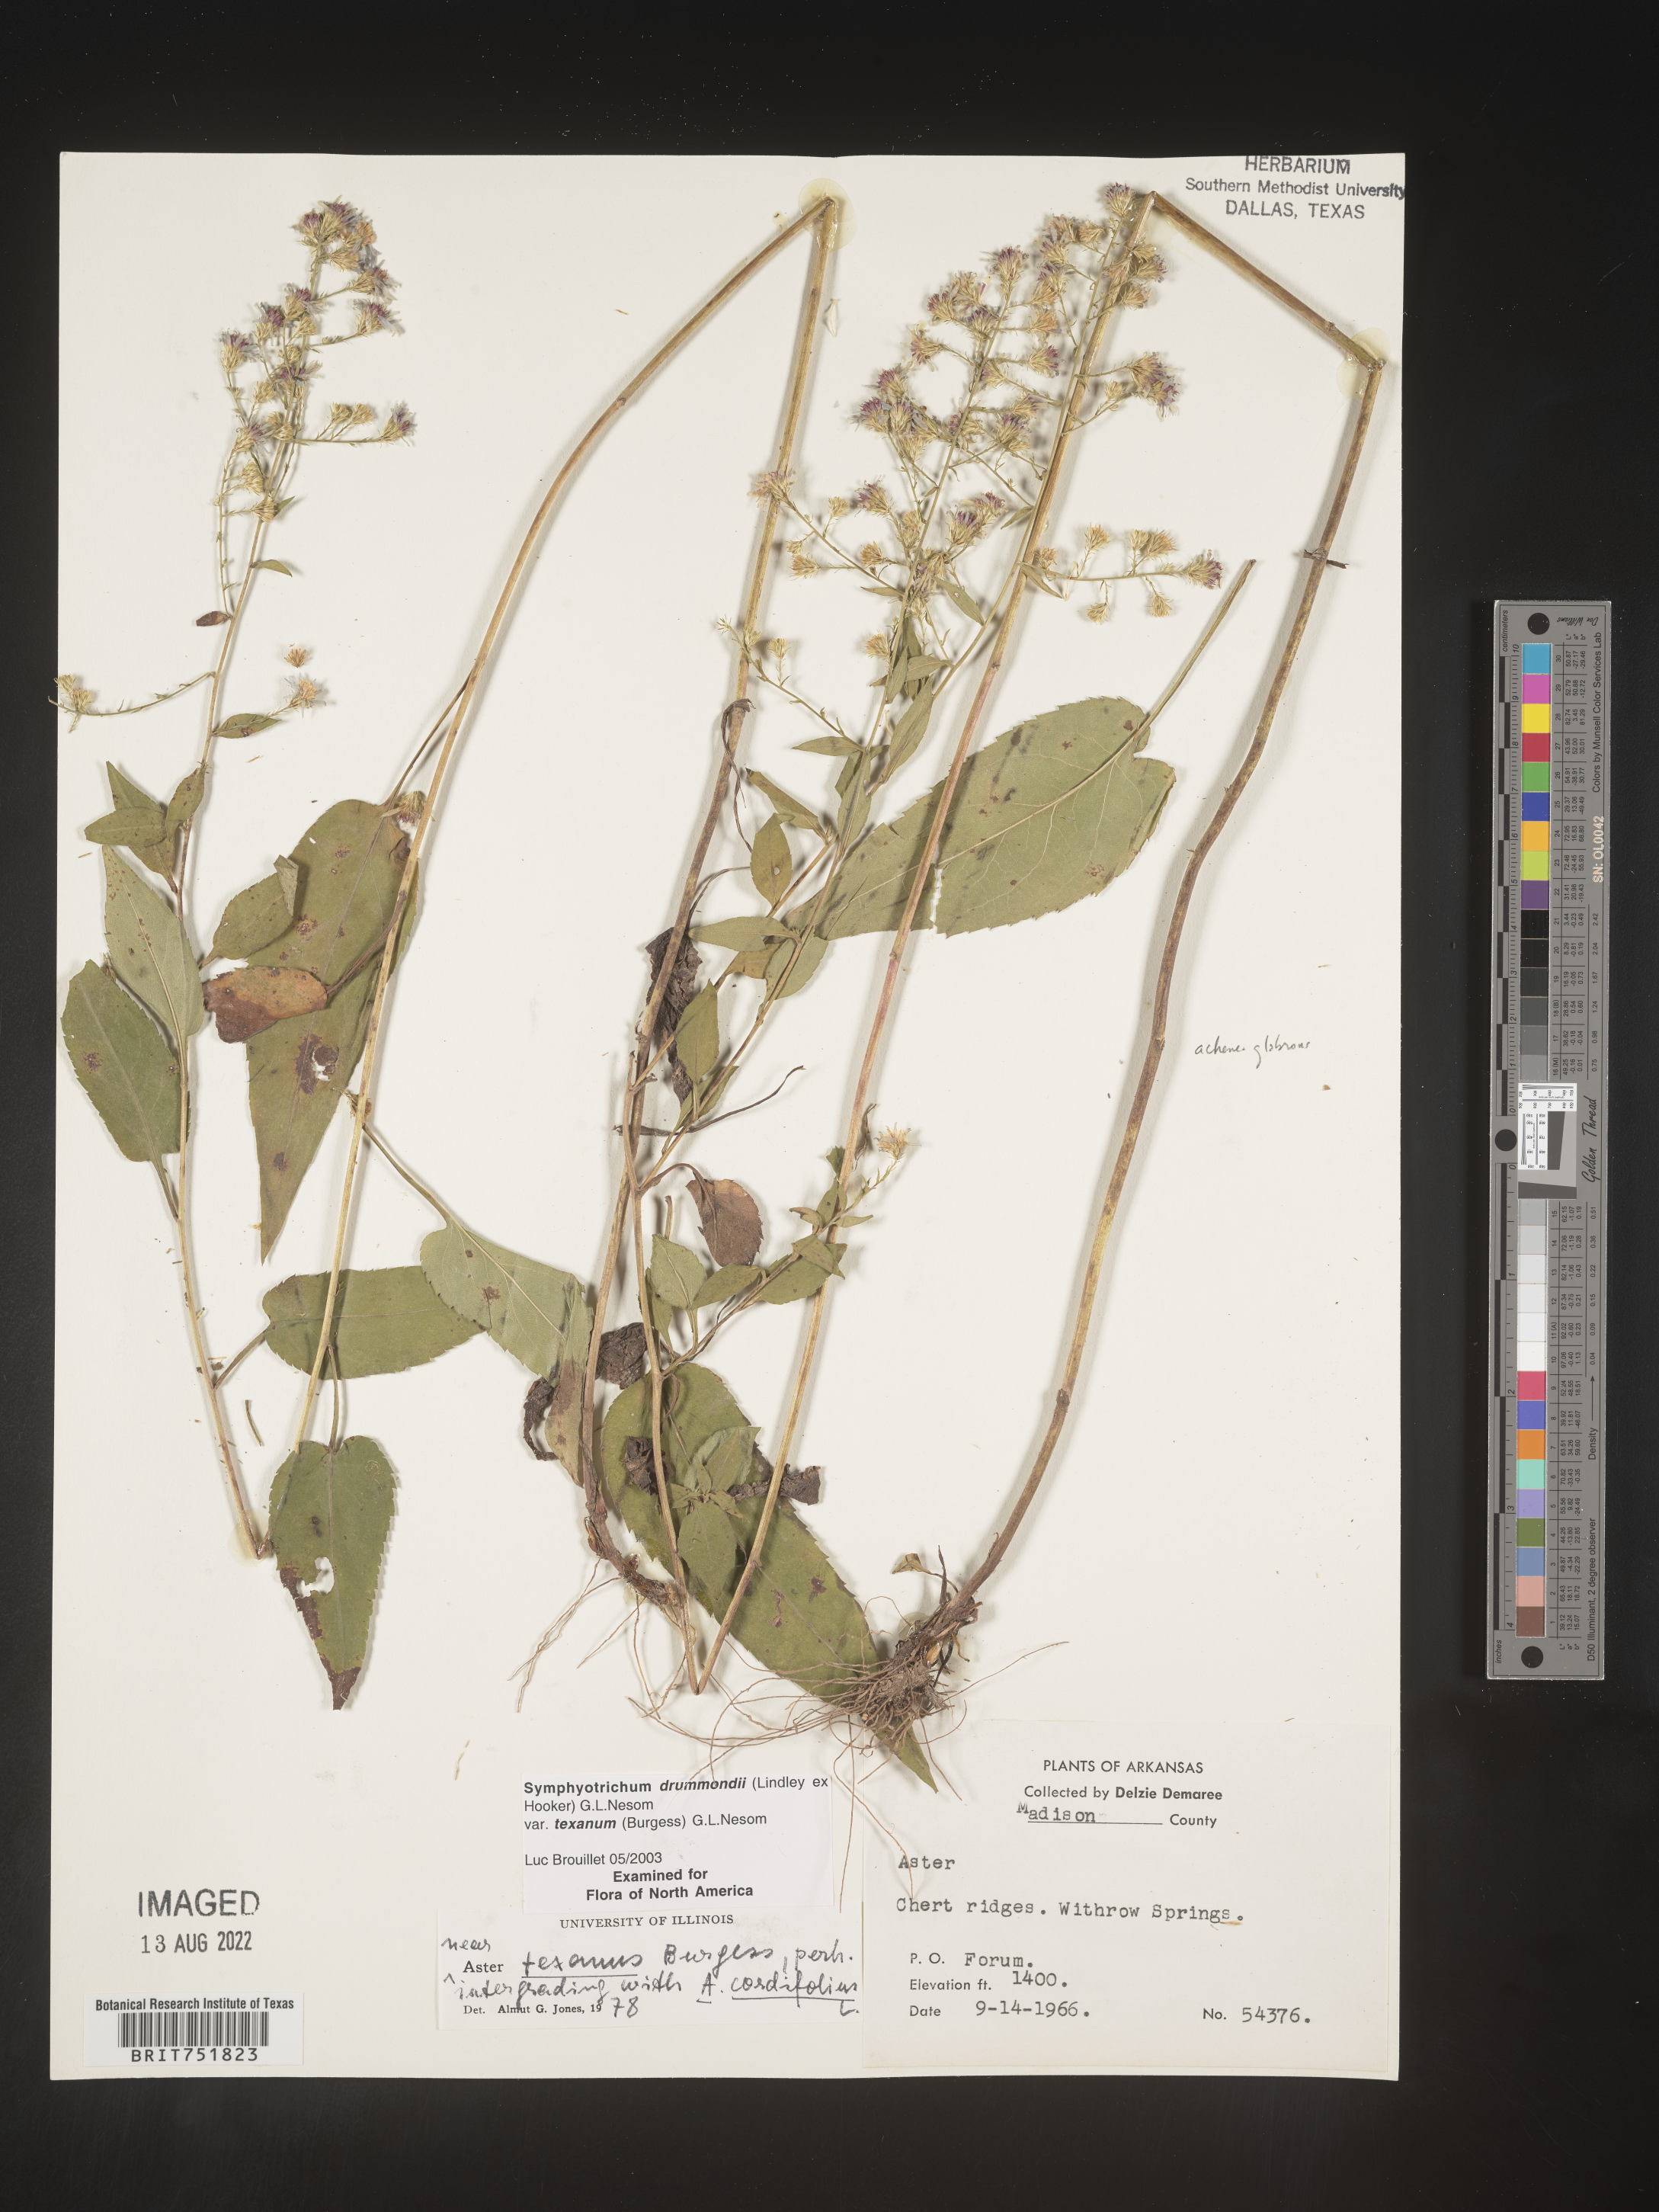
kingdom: Plantae
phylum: Tracheophyta
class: Magnoliopsida
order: Asterales
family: Asteraceae
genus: Symphyotrichum
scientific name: Symphyotrichum drummondii
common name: Drummond's aster
